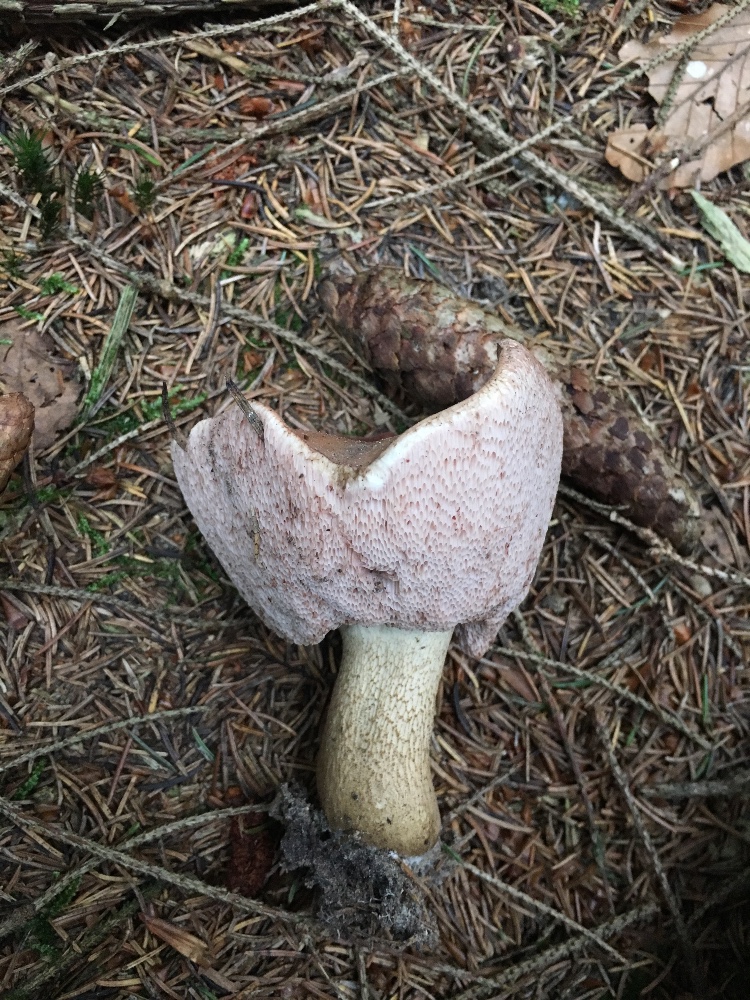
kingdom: Fungi
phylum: Basidiomycota
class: Agaricomycetes
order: Boletales
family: Boletaceae
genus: Tylopilus
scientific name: Tylopilus felleus
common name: galderørhat
